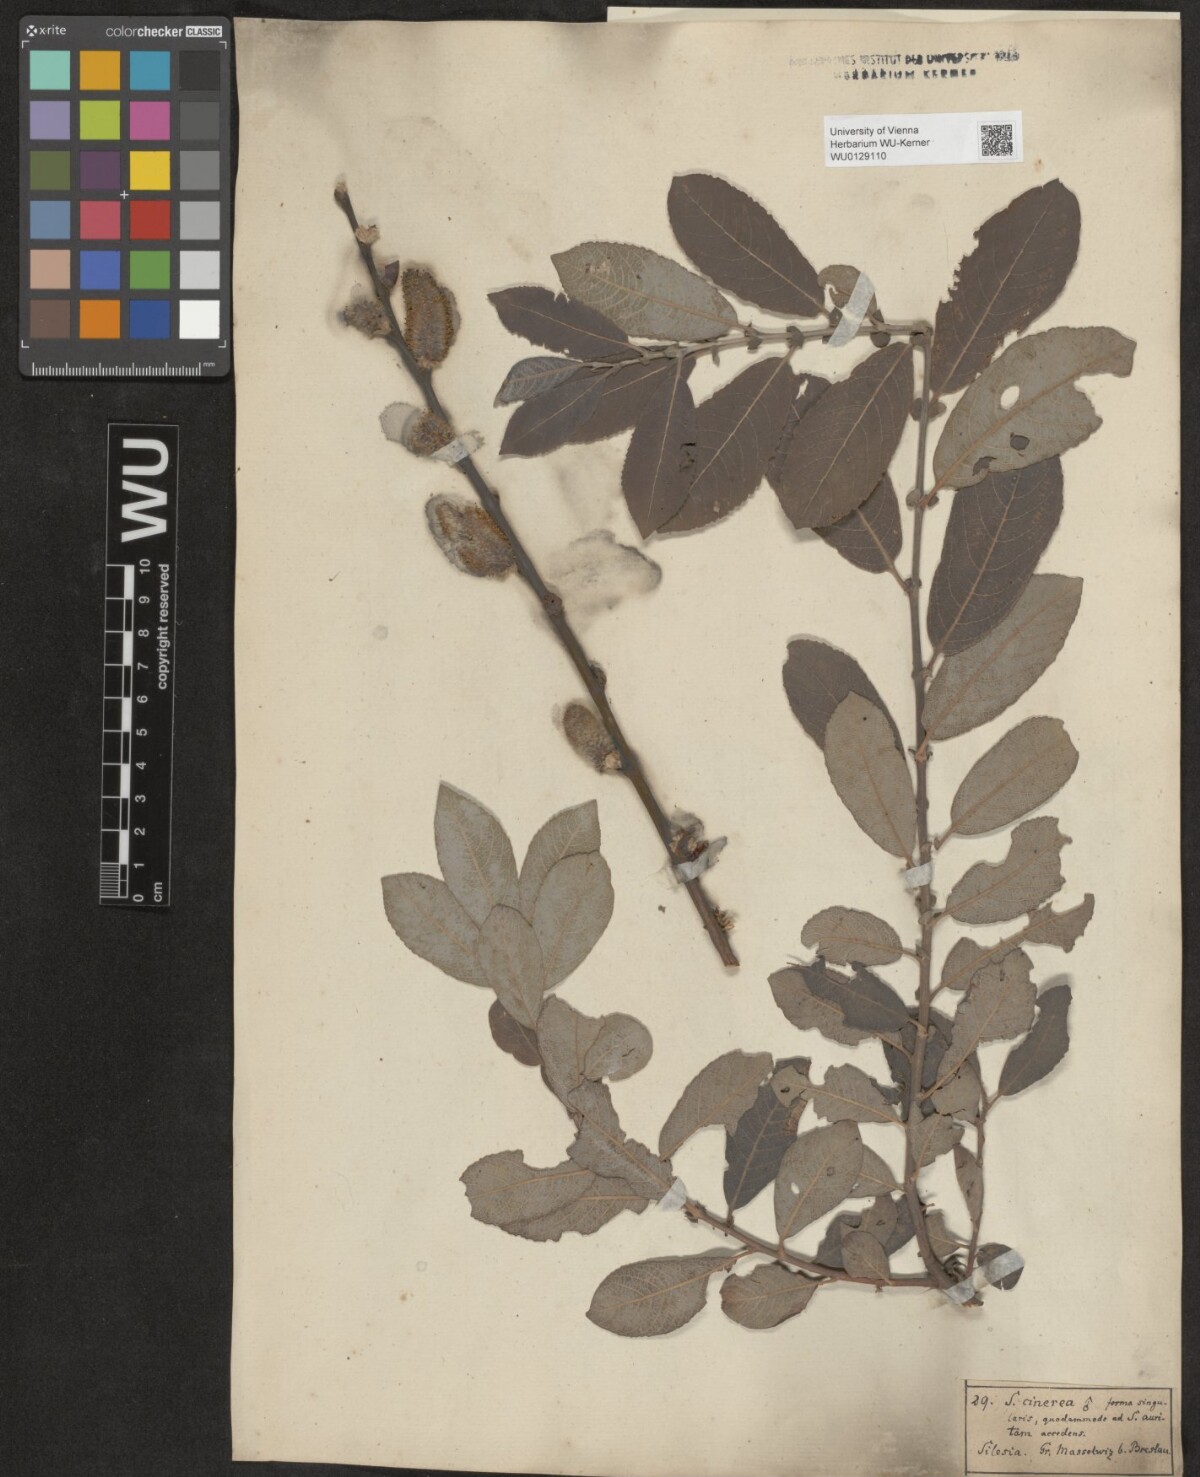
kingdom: Plantae
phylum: Tracheophyta
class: Magnoliopsida
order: Malpighiales
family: Salicaceae
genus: Salix
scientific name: Salix cinerea
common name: Common sallow
